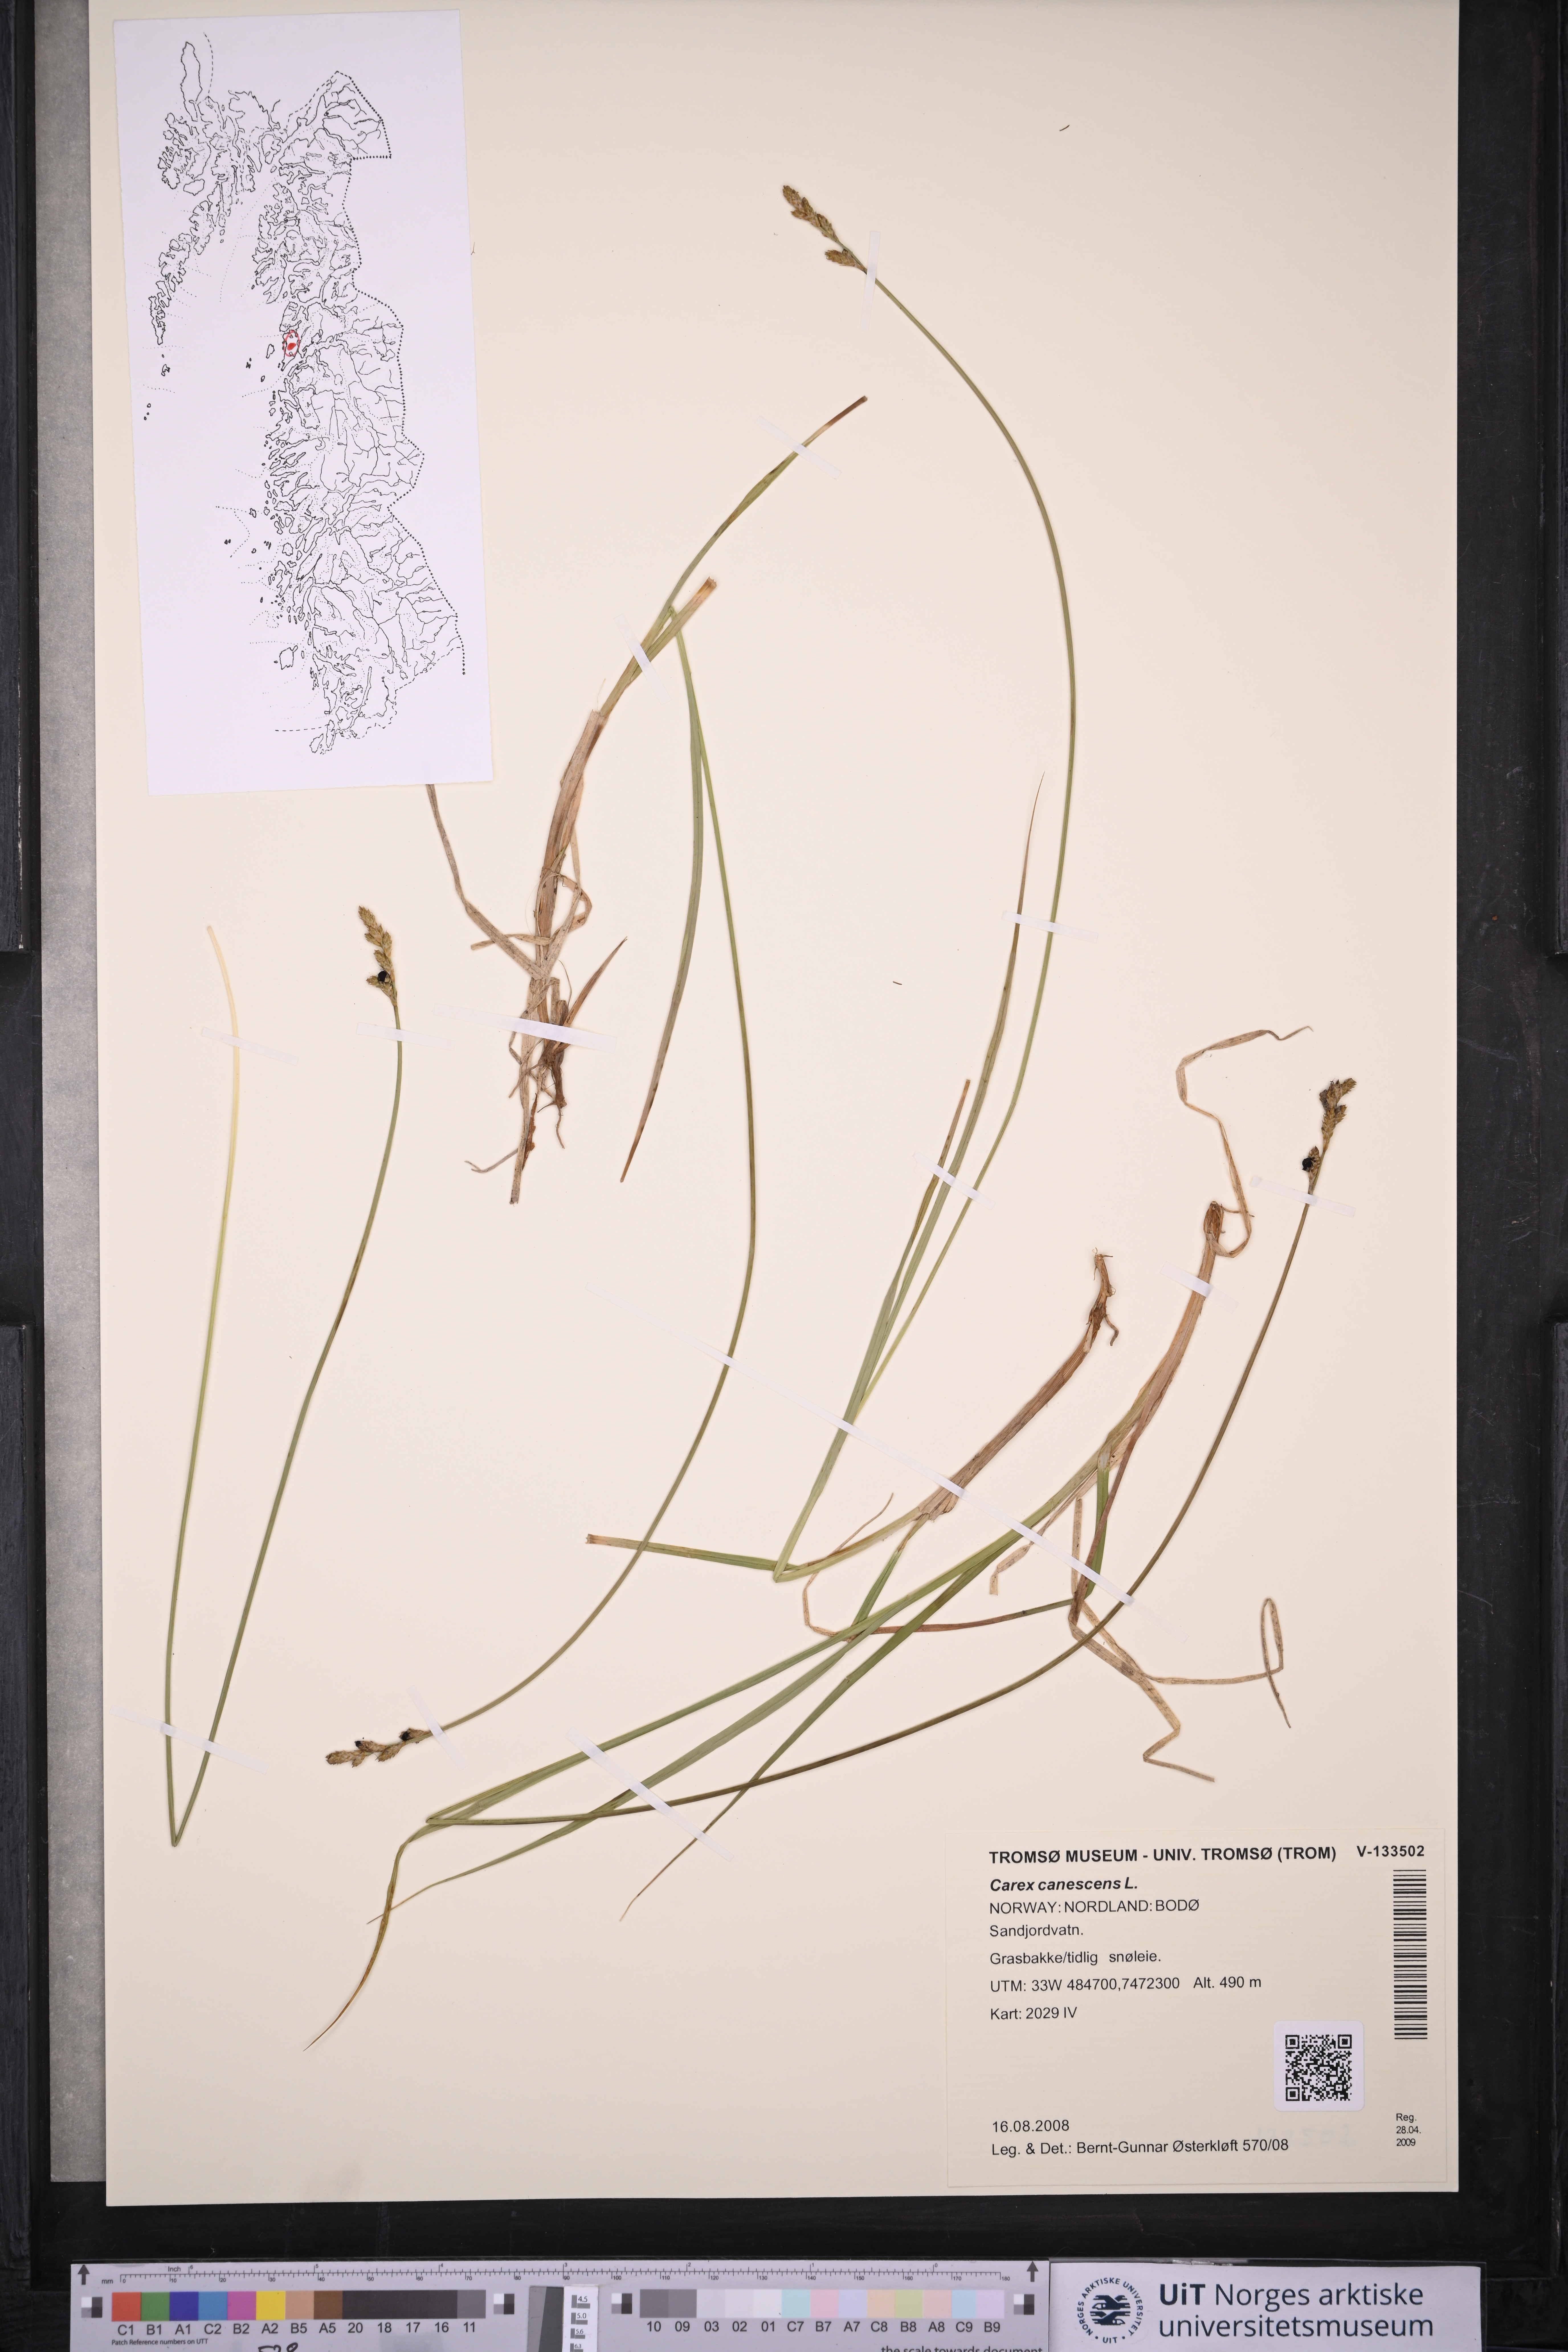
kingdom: Plantae
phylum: Tracheophyta
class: Liliopsida
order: Poales
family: Cyperaceae
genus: Carex
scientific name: Carex canescens
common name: White sedge
